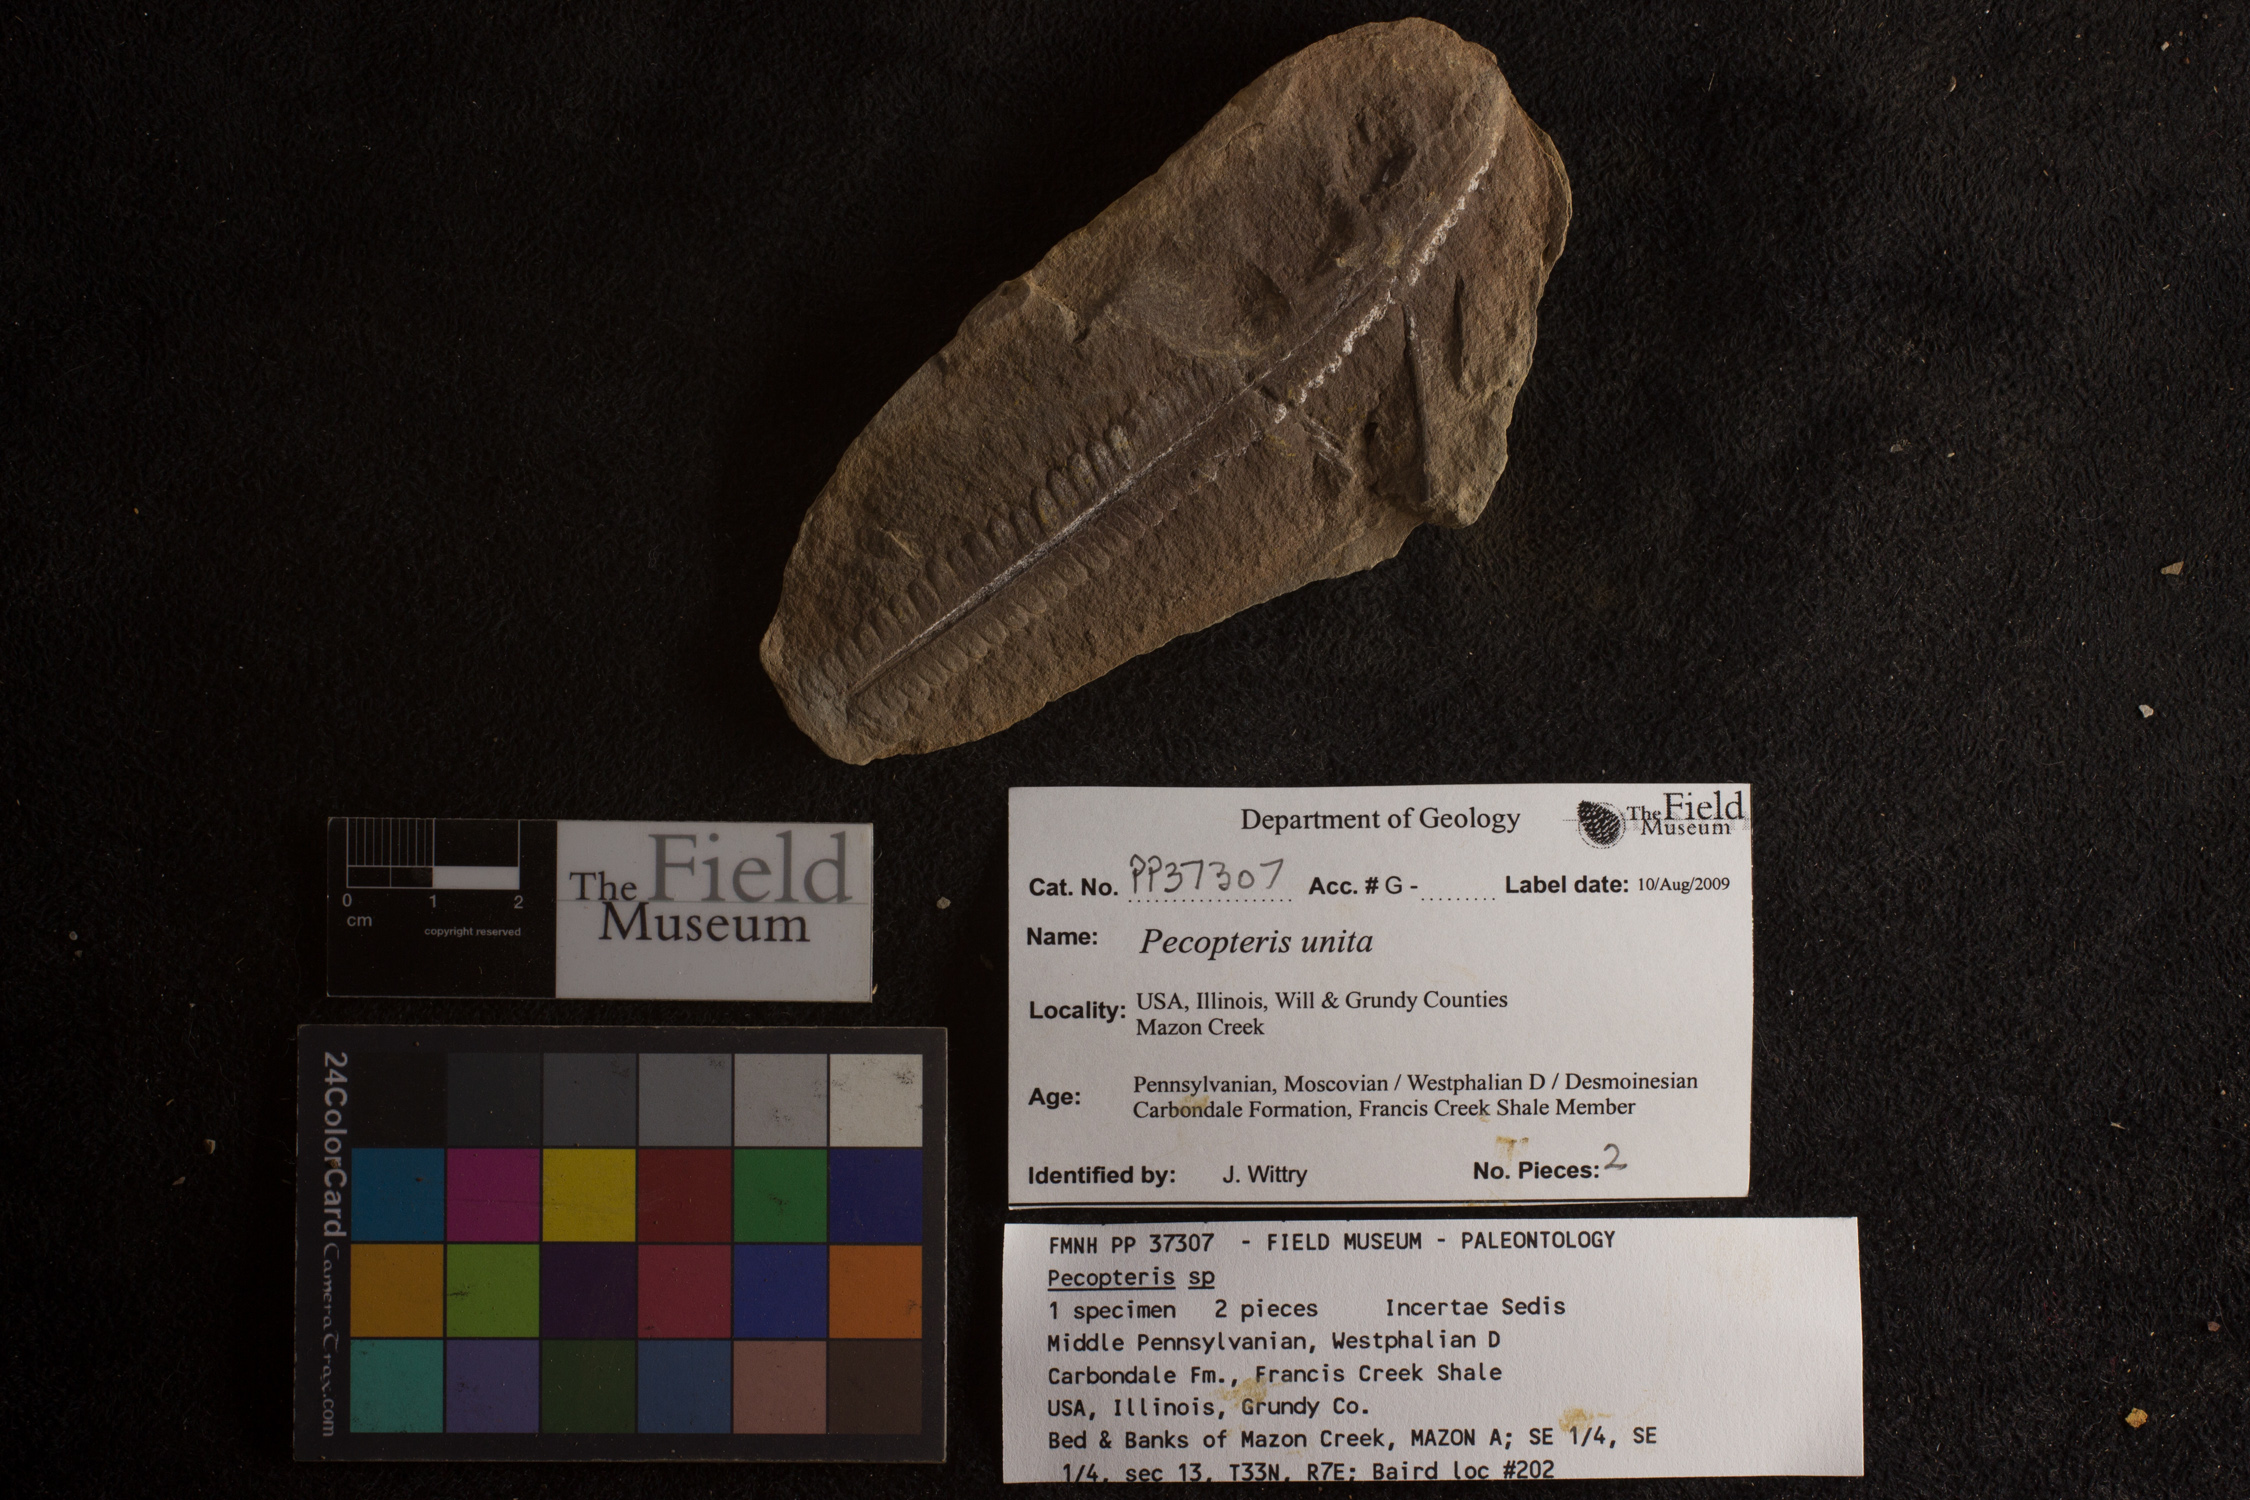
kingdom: Plantae
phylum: Tracheophyta
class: Polypodiopsida
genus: Diplazites
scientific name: Diplazites
